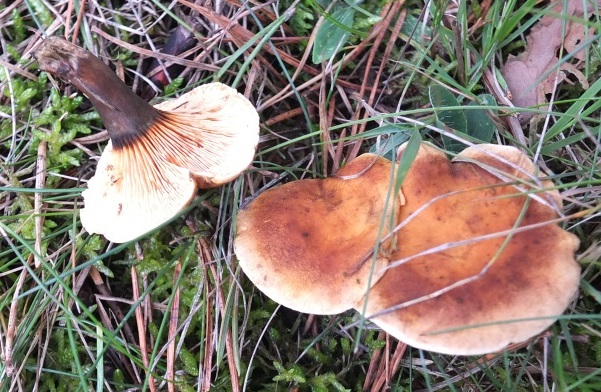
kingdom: Fungi
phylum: Basidiomycota
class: Agaricomycetes
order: Boletales
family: Hygrophoropsidaceae
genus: Hygrophoropsis
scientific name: Hygrophoropsis rufa
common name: brunfiltet orangekantarel
